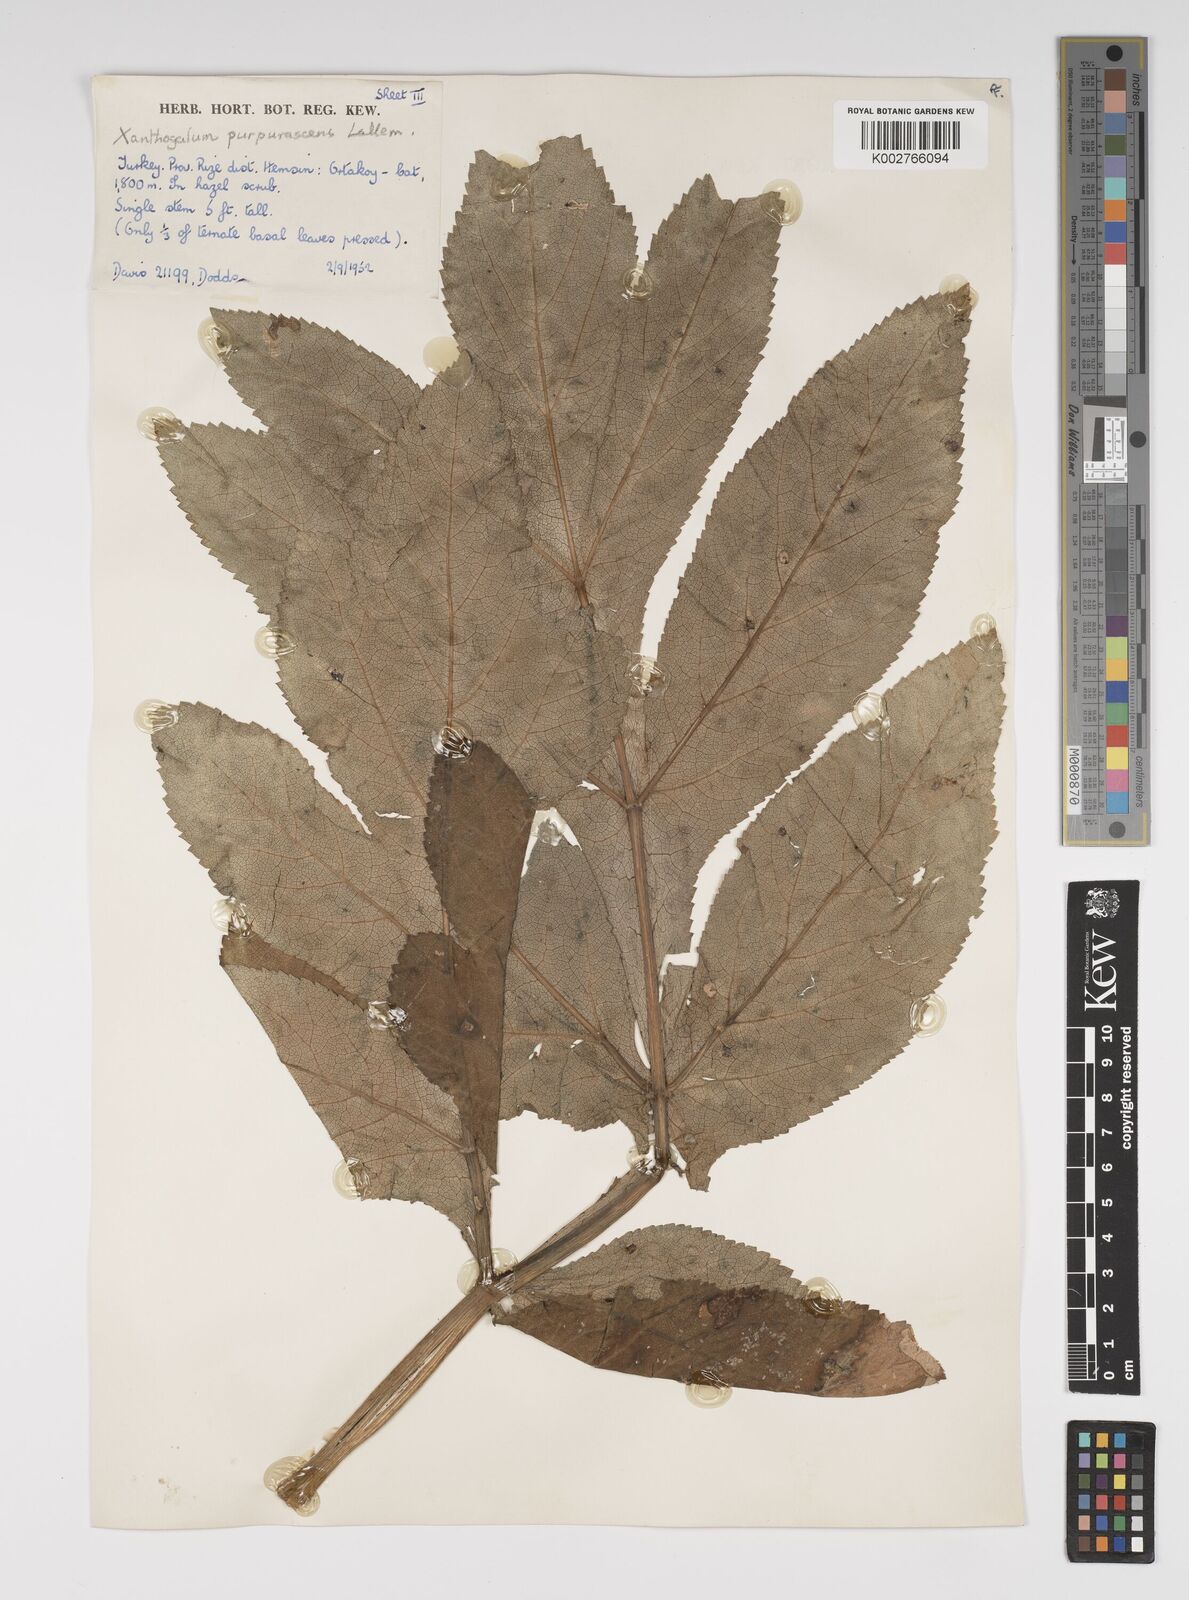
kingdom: Plantae
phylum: Tracheophyta
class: Magnoliopsida
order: Apiales
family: Apiaceae
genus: Xanthogalum
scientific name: Xanthogalum purpurascens
